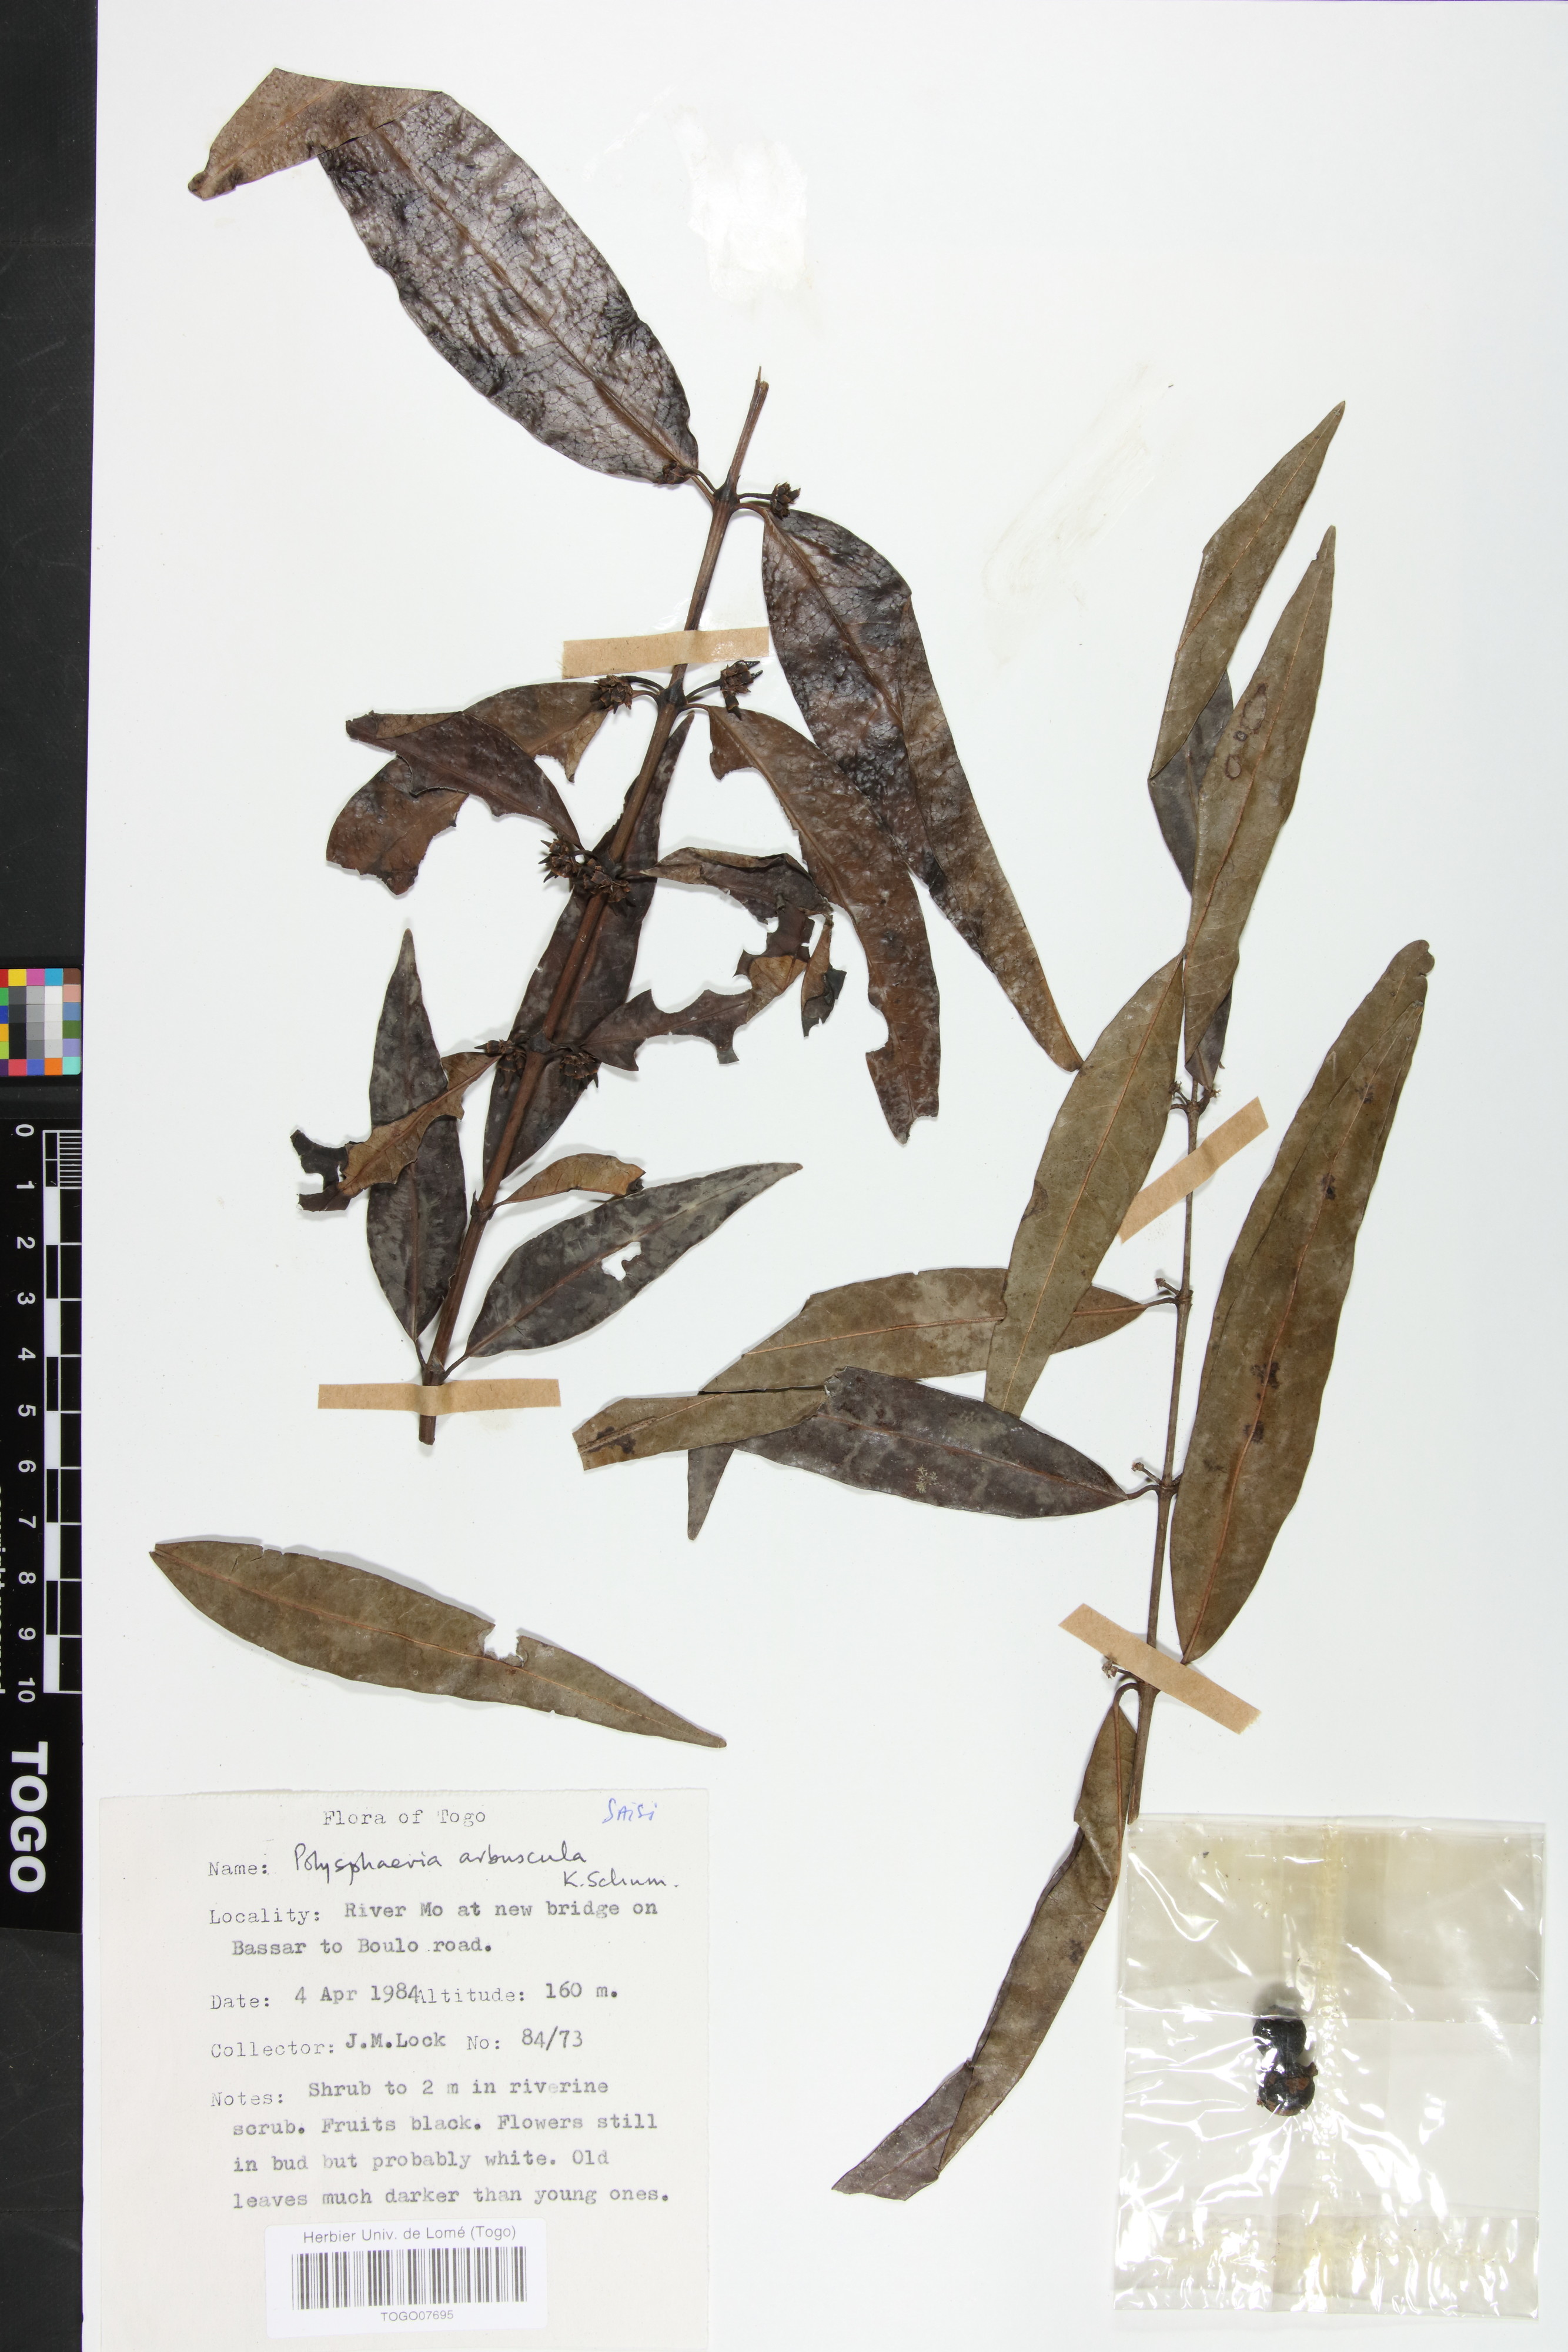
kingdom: Plantae
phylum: Tracheophyta
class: Magnoliopsida
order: Gentianales
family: Rubiaceae
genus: Polysphaeria
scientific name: Polysphaeria arbuscula
